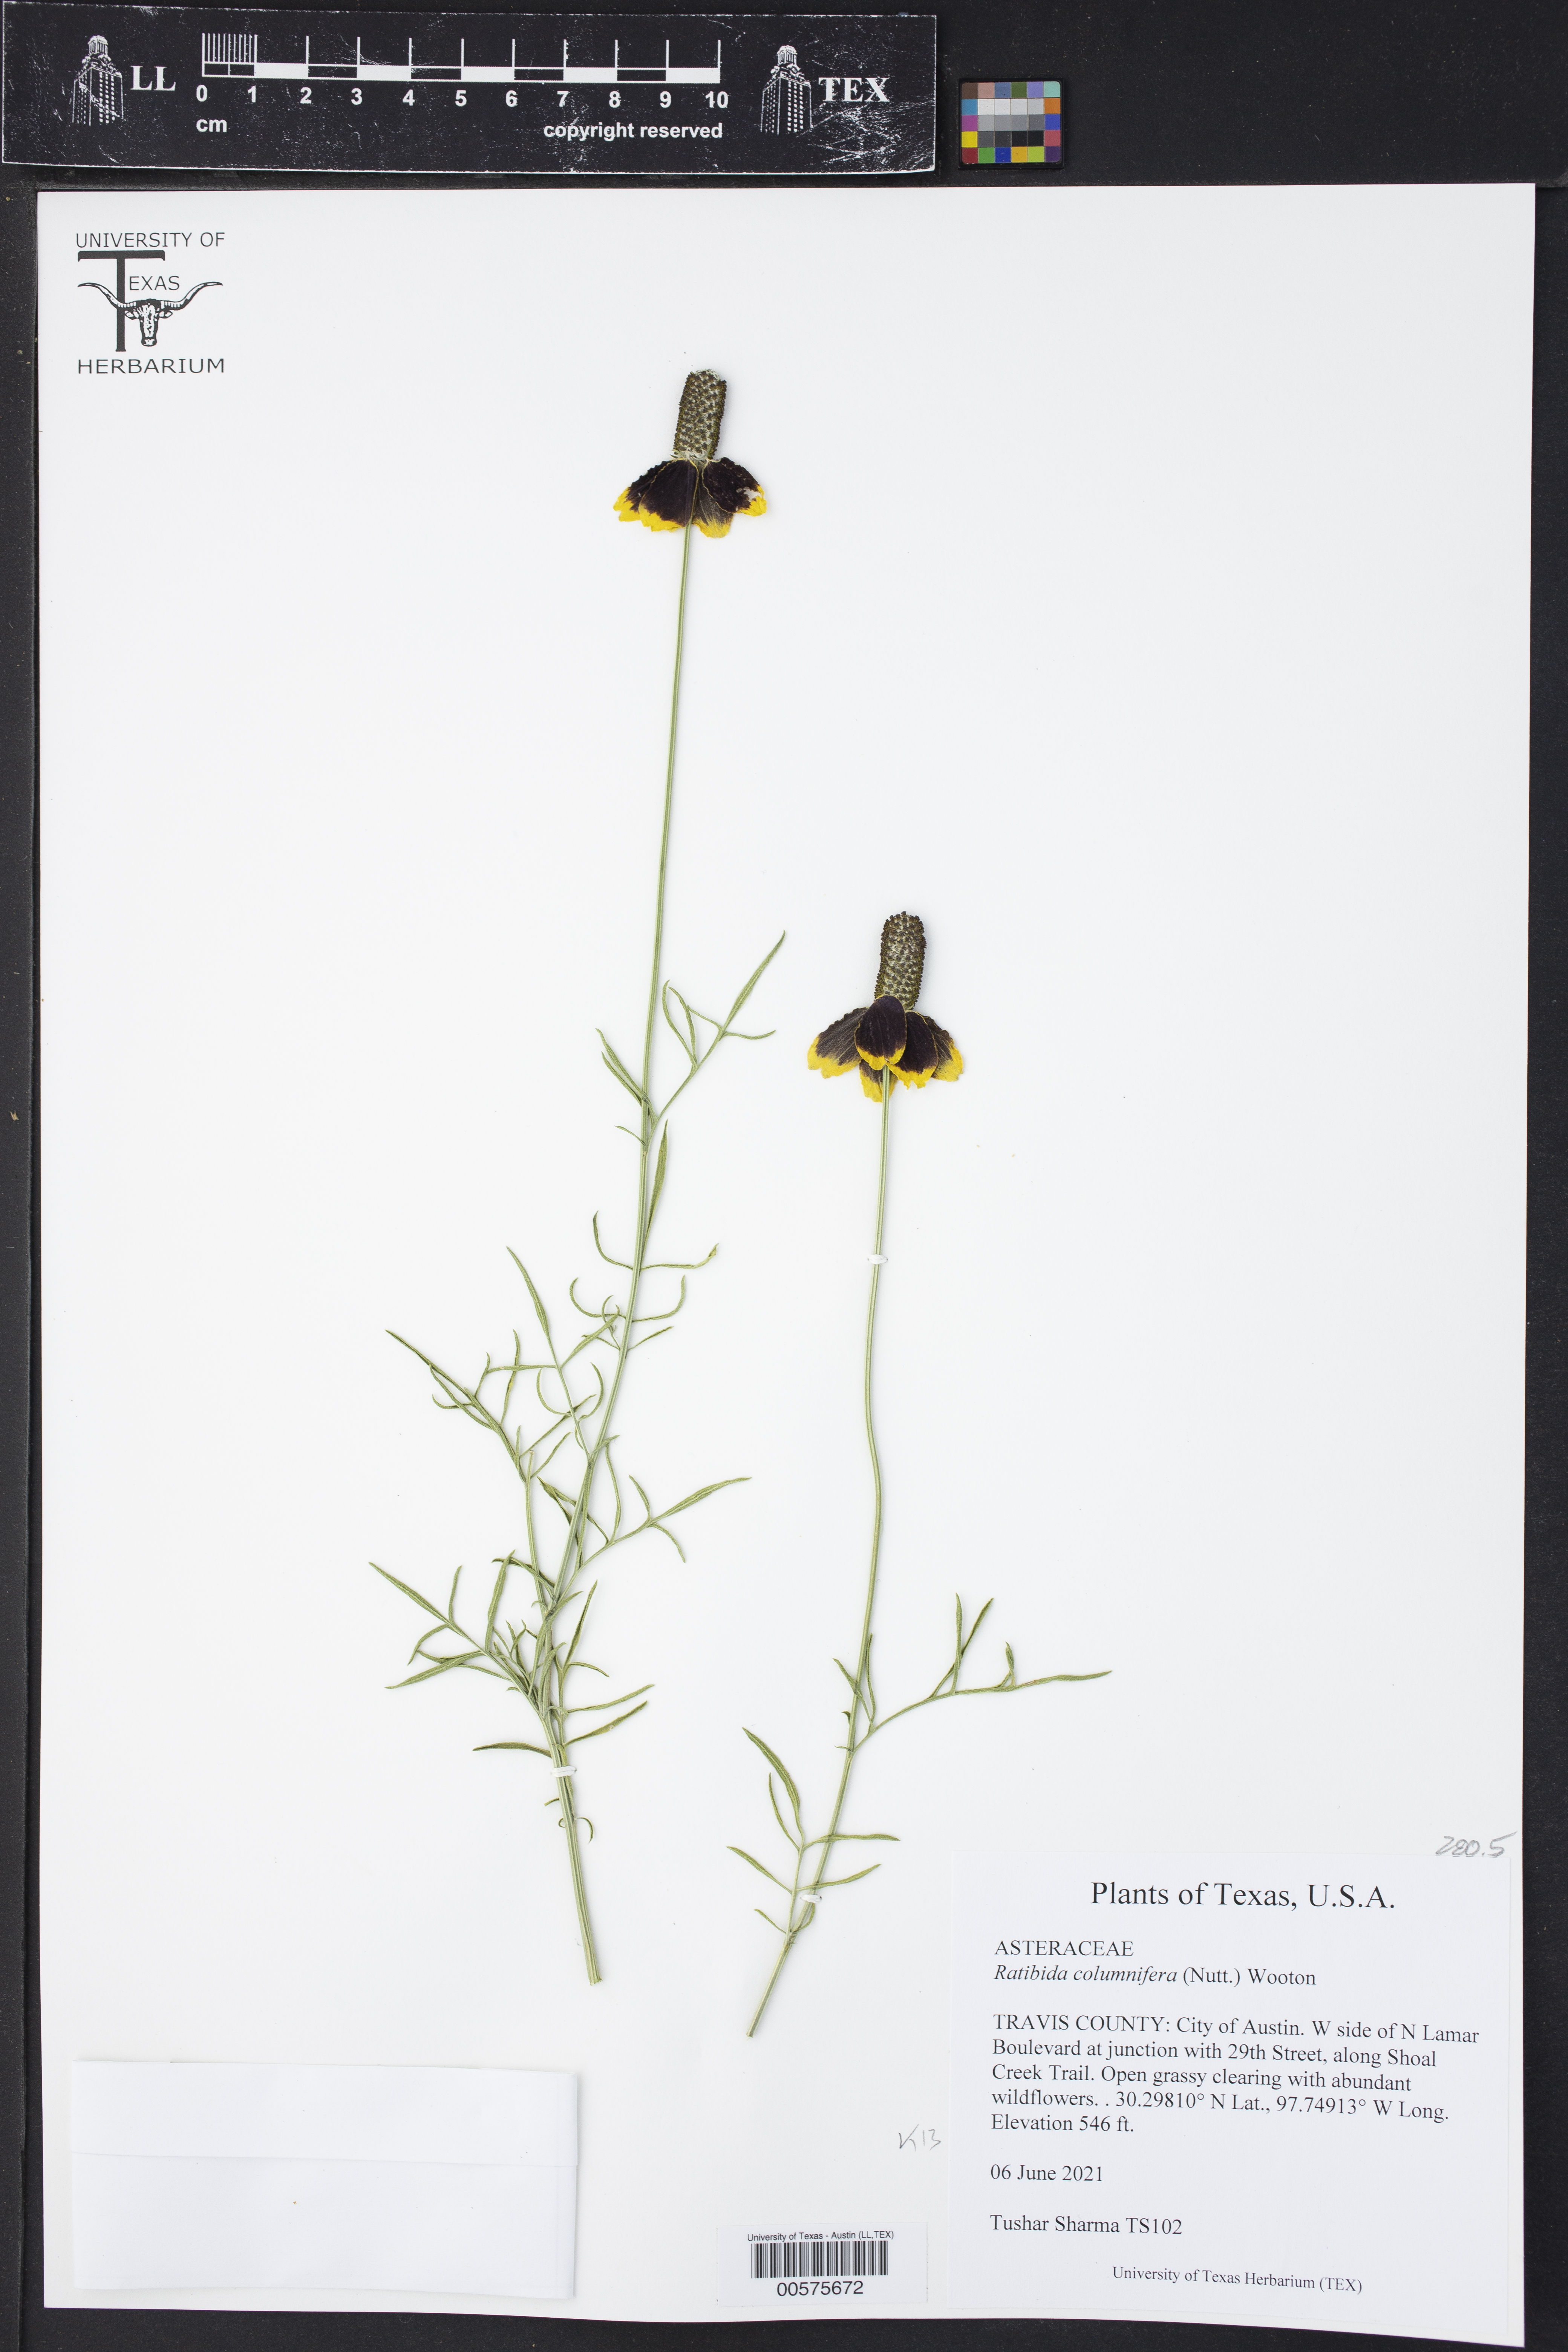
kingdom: Plantae
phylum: Tracheophyta
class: Magnoliopsida
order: Asterales
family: Asteraceae
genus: Ratibida
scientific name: Ratibida columnifera
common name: Prairie coneflower
